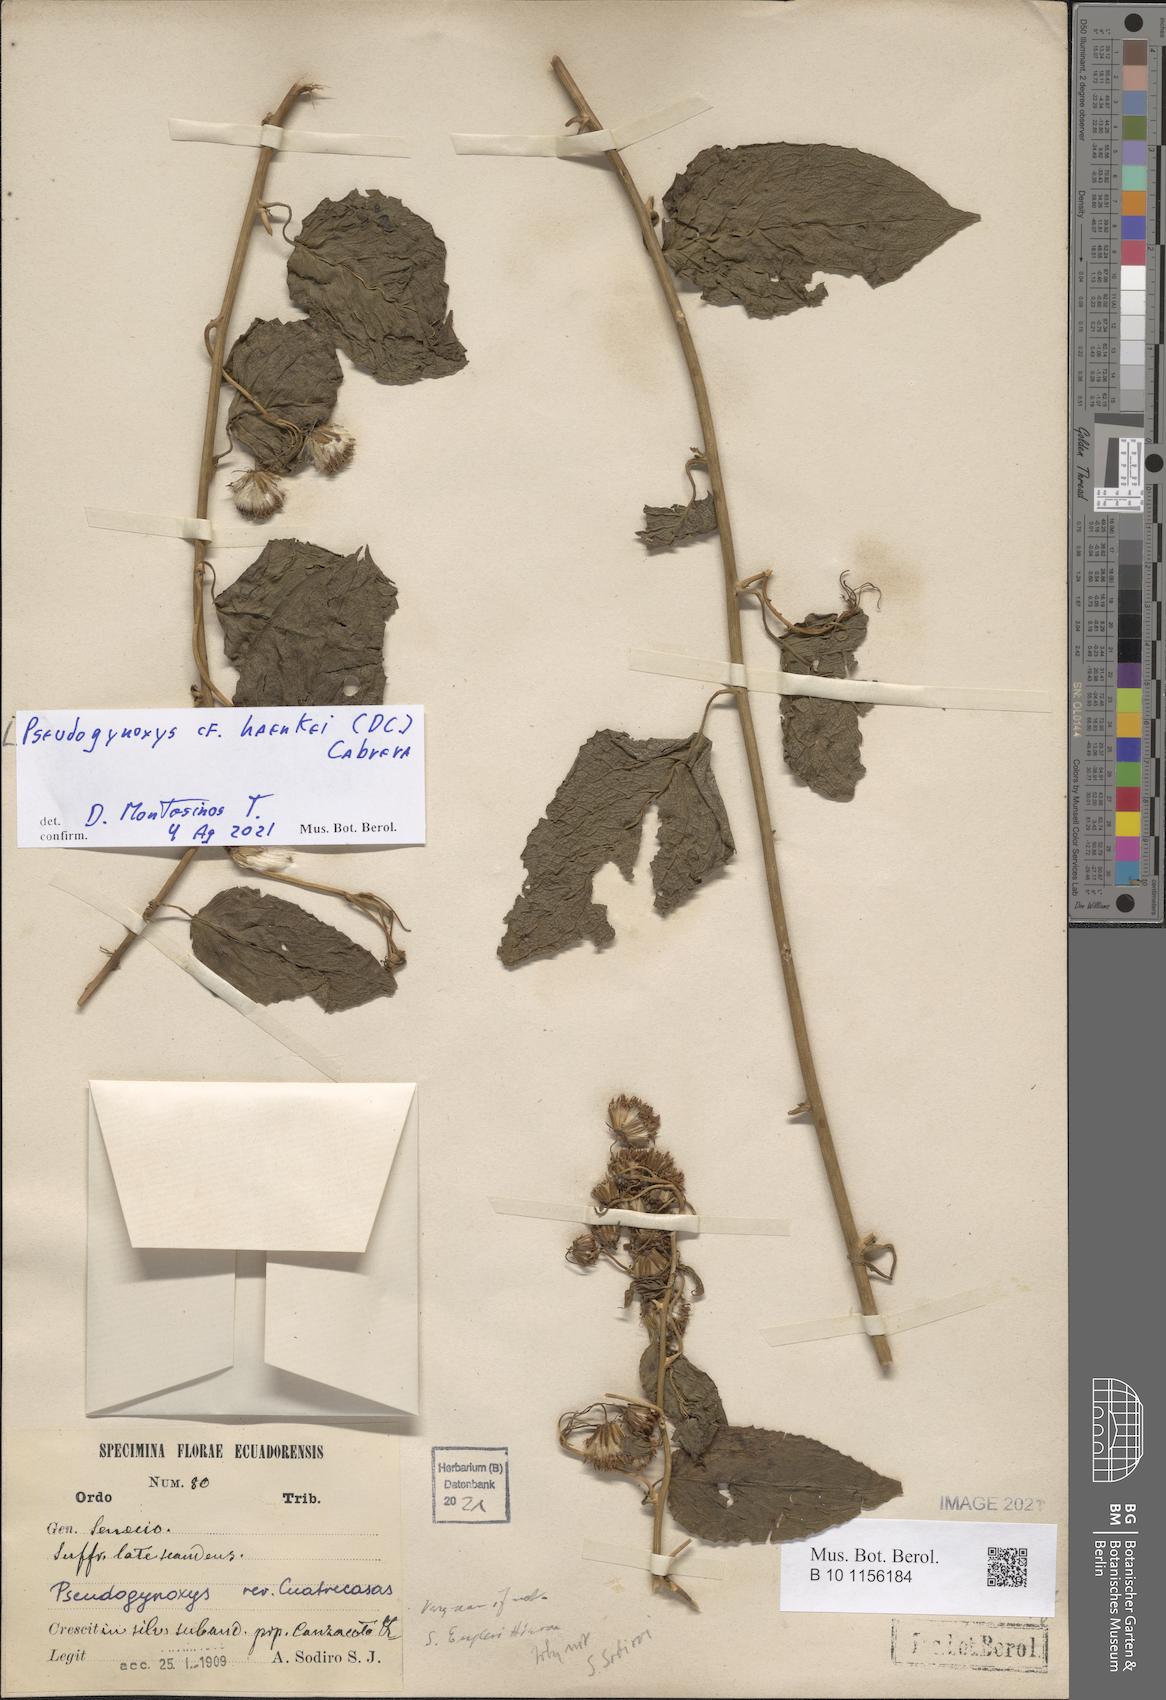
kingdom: Plantae
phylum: Tracheophyta
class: Magnoliopsida
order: Asterales
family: Asteraceae
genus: Pseudogynoxys
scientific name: Pseudogynoxys haenkei
